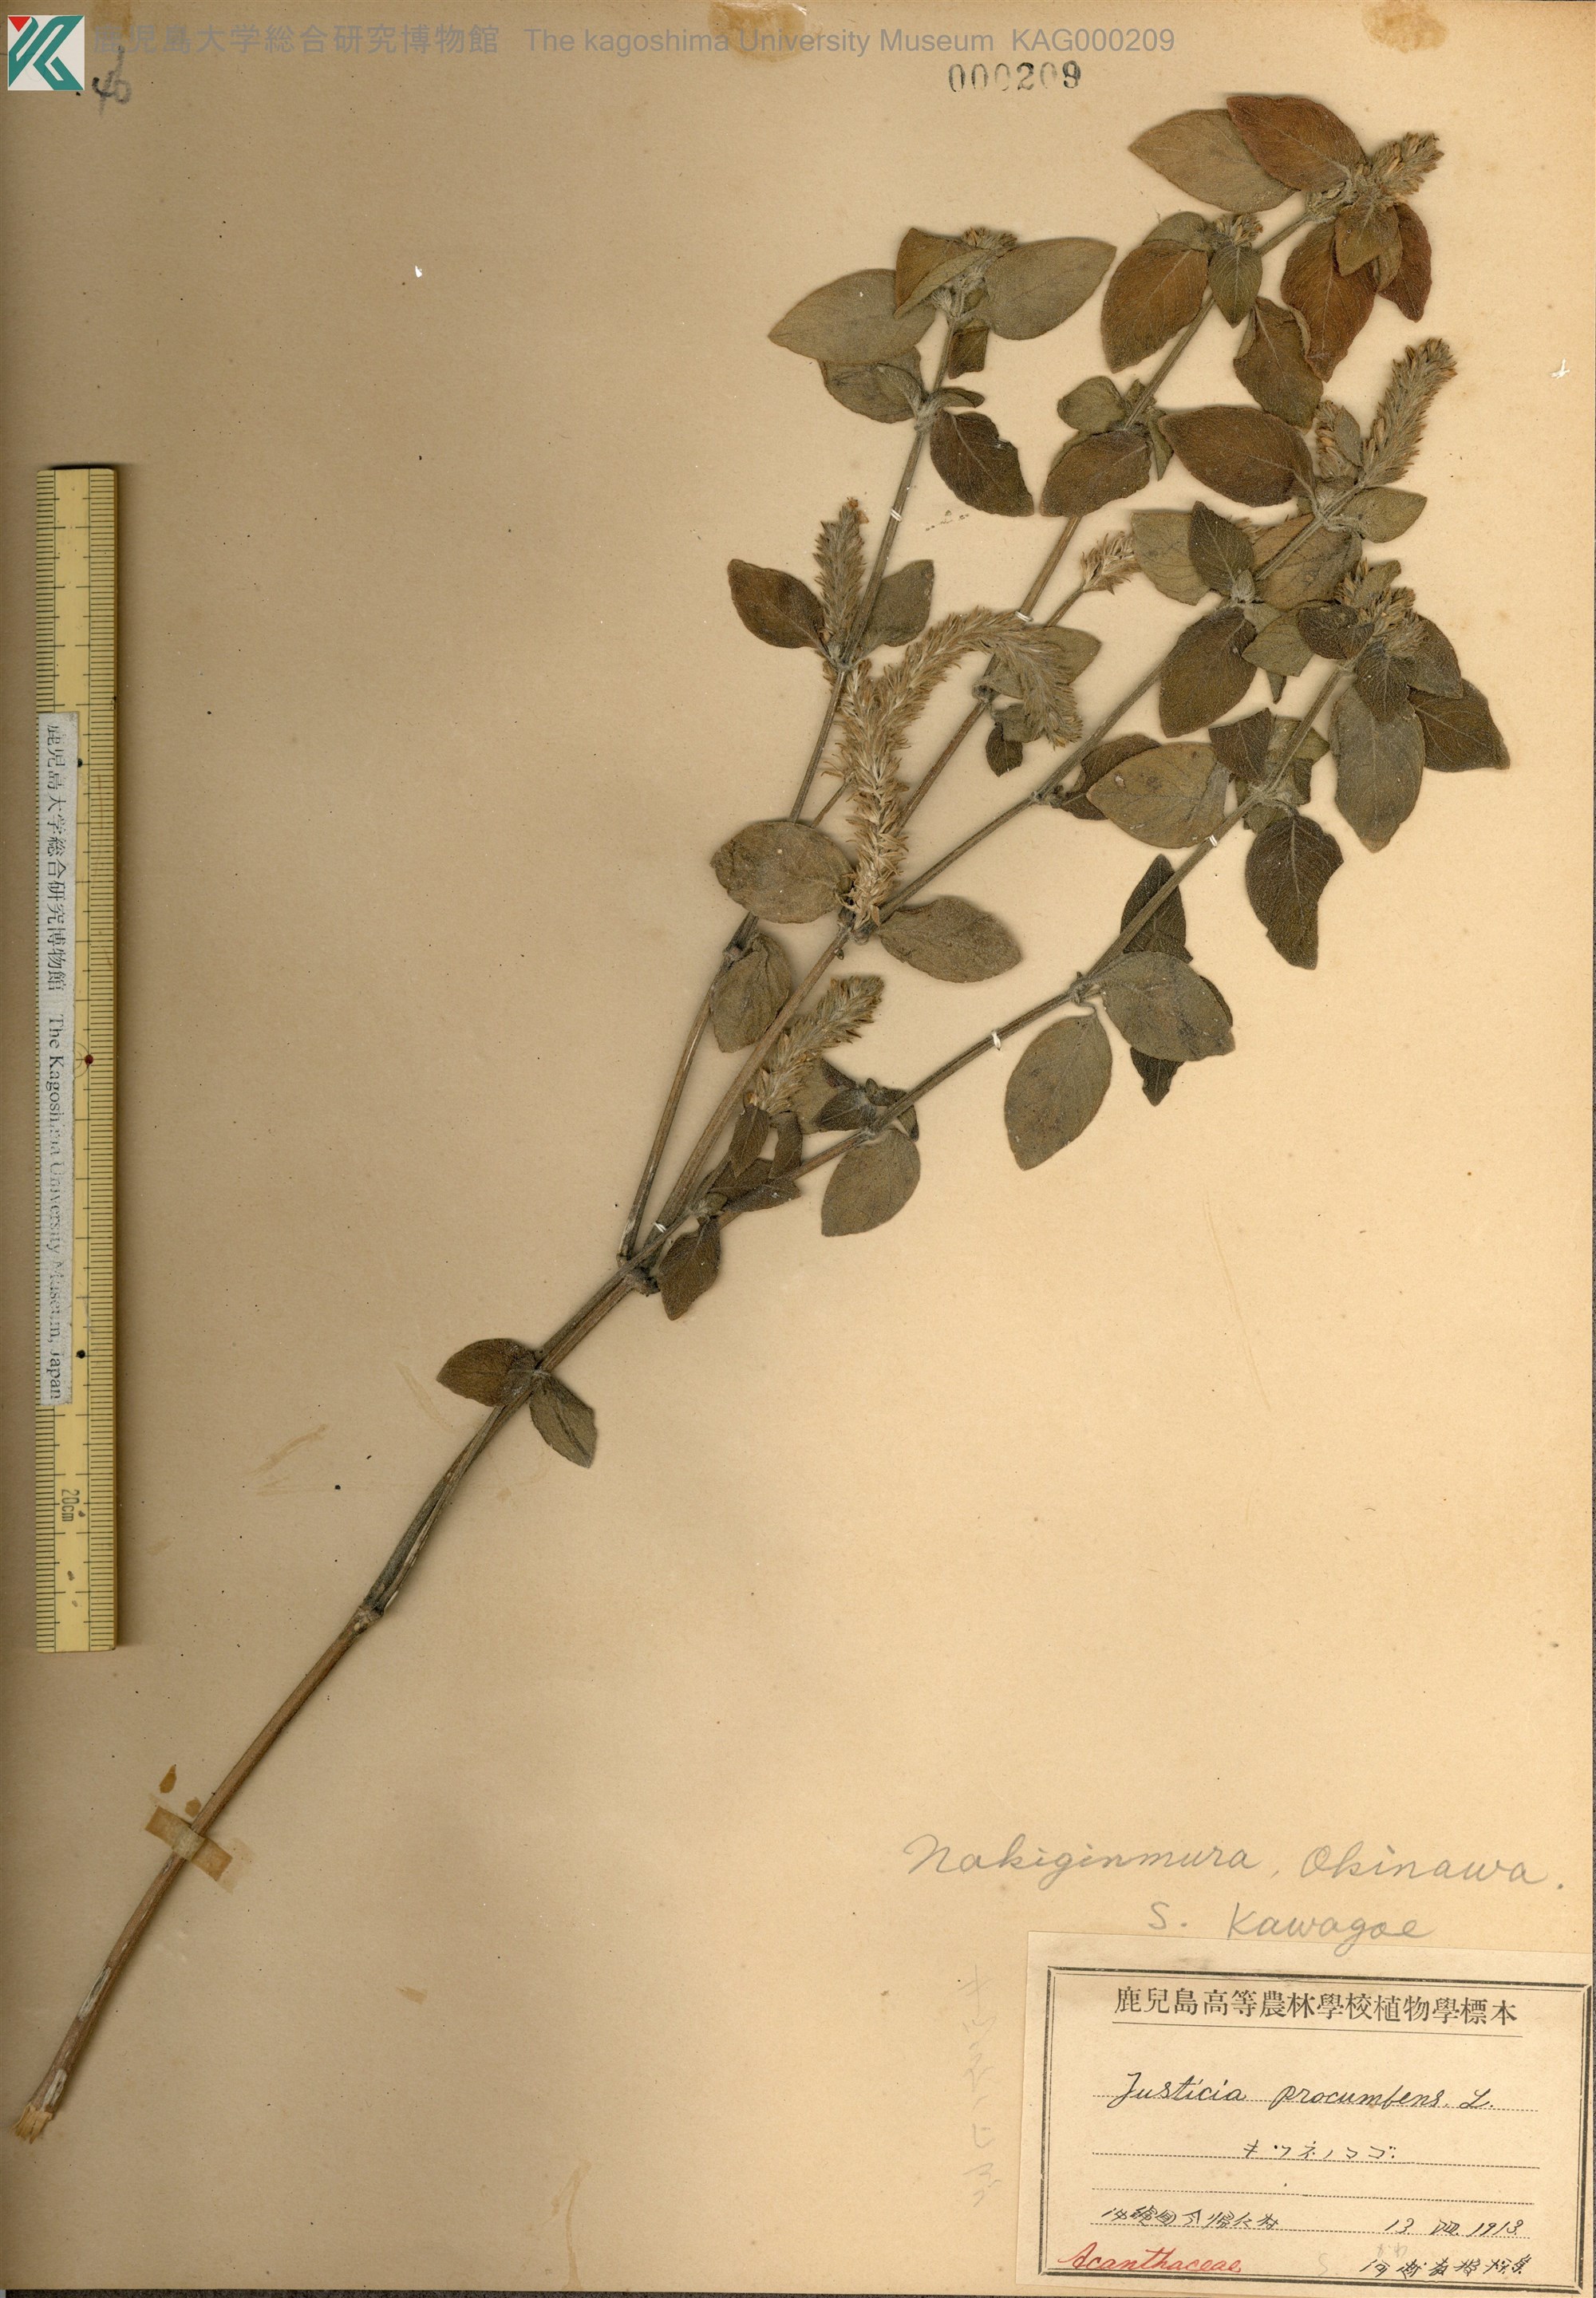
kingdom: Plantae
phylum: Tracheophyta
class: Magnoliopsida
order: Lamiales
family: Acanthaceae
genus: Rostellularia
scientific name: Rostellularia procumbens
